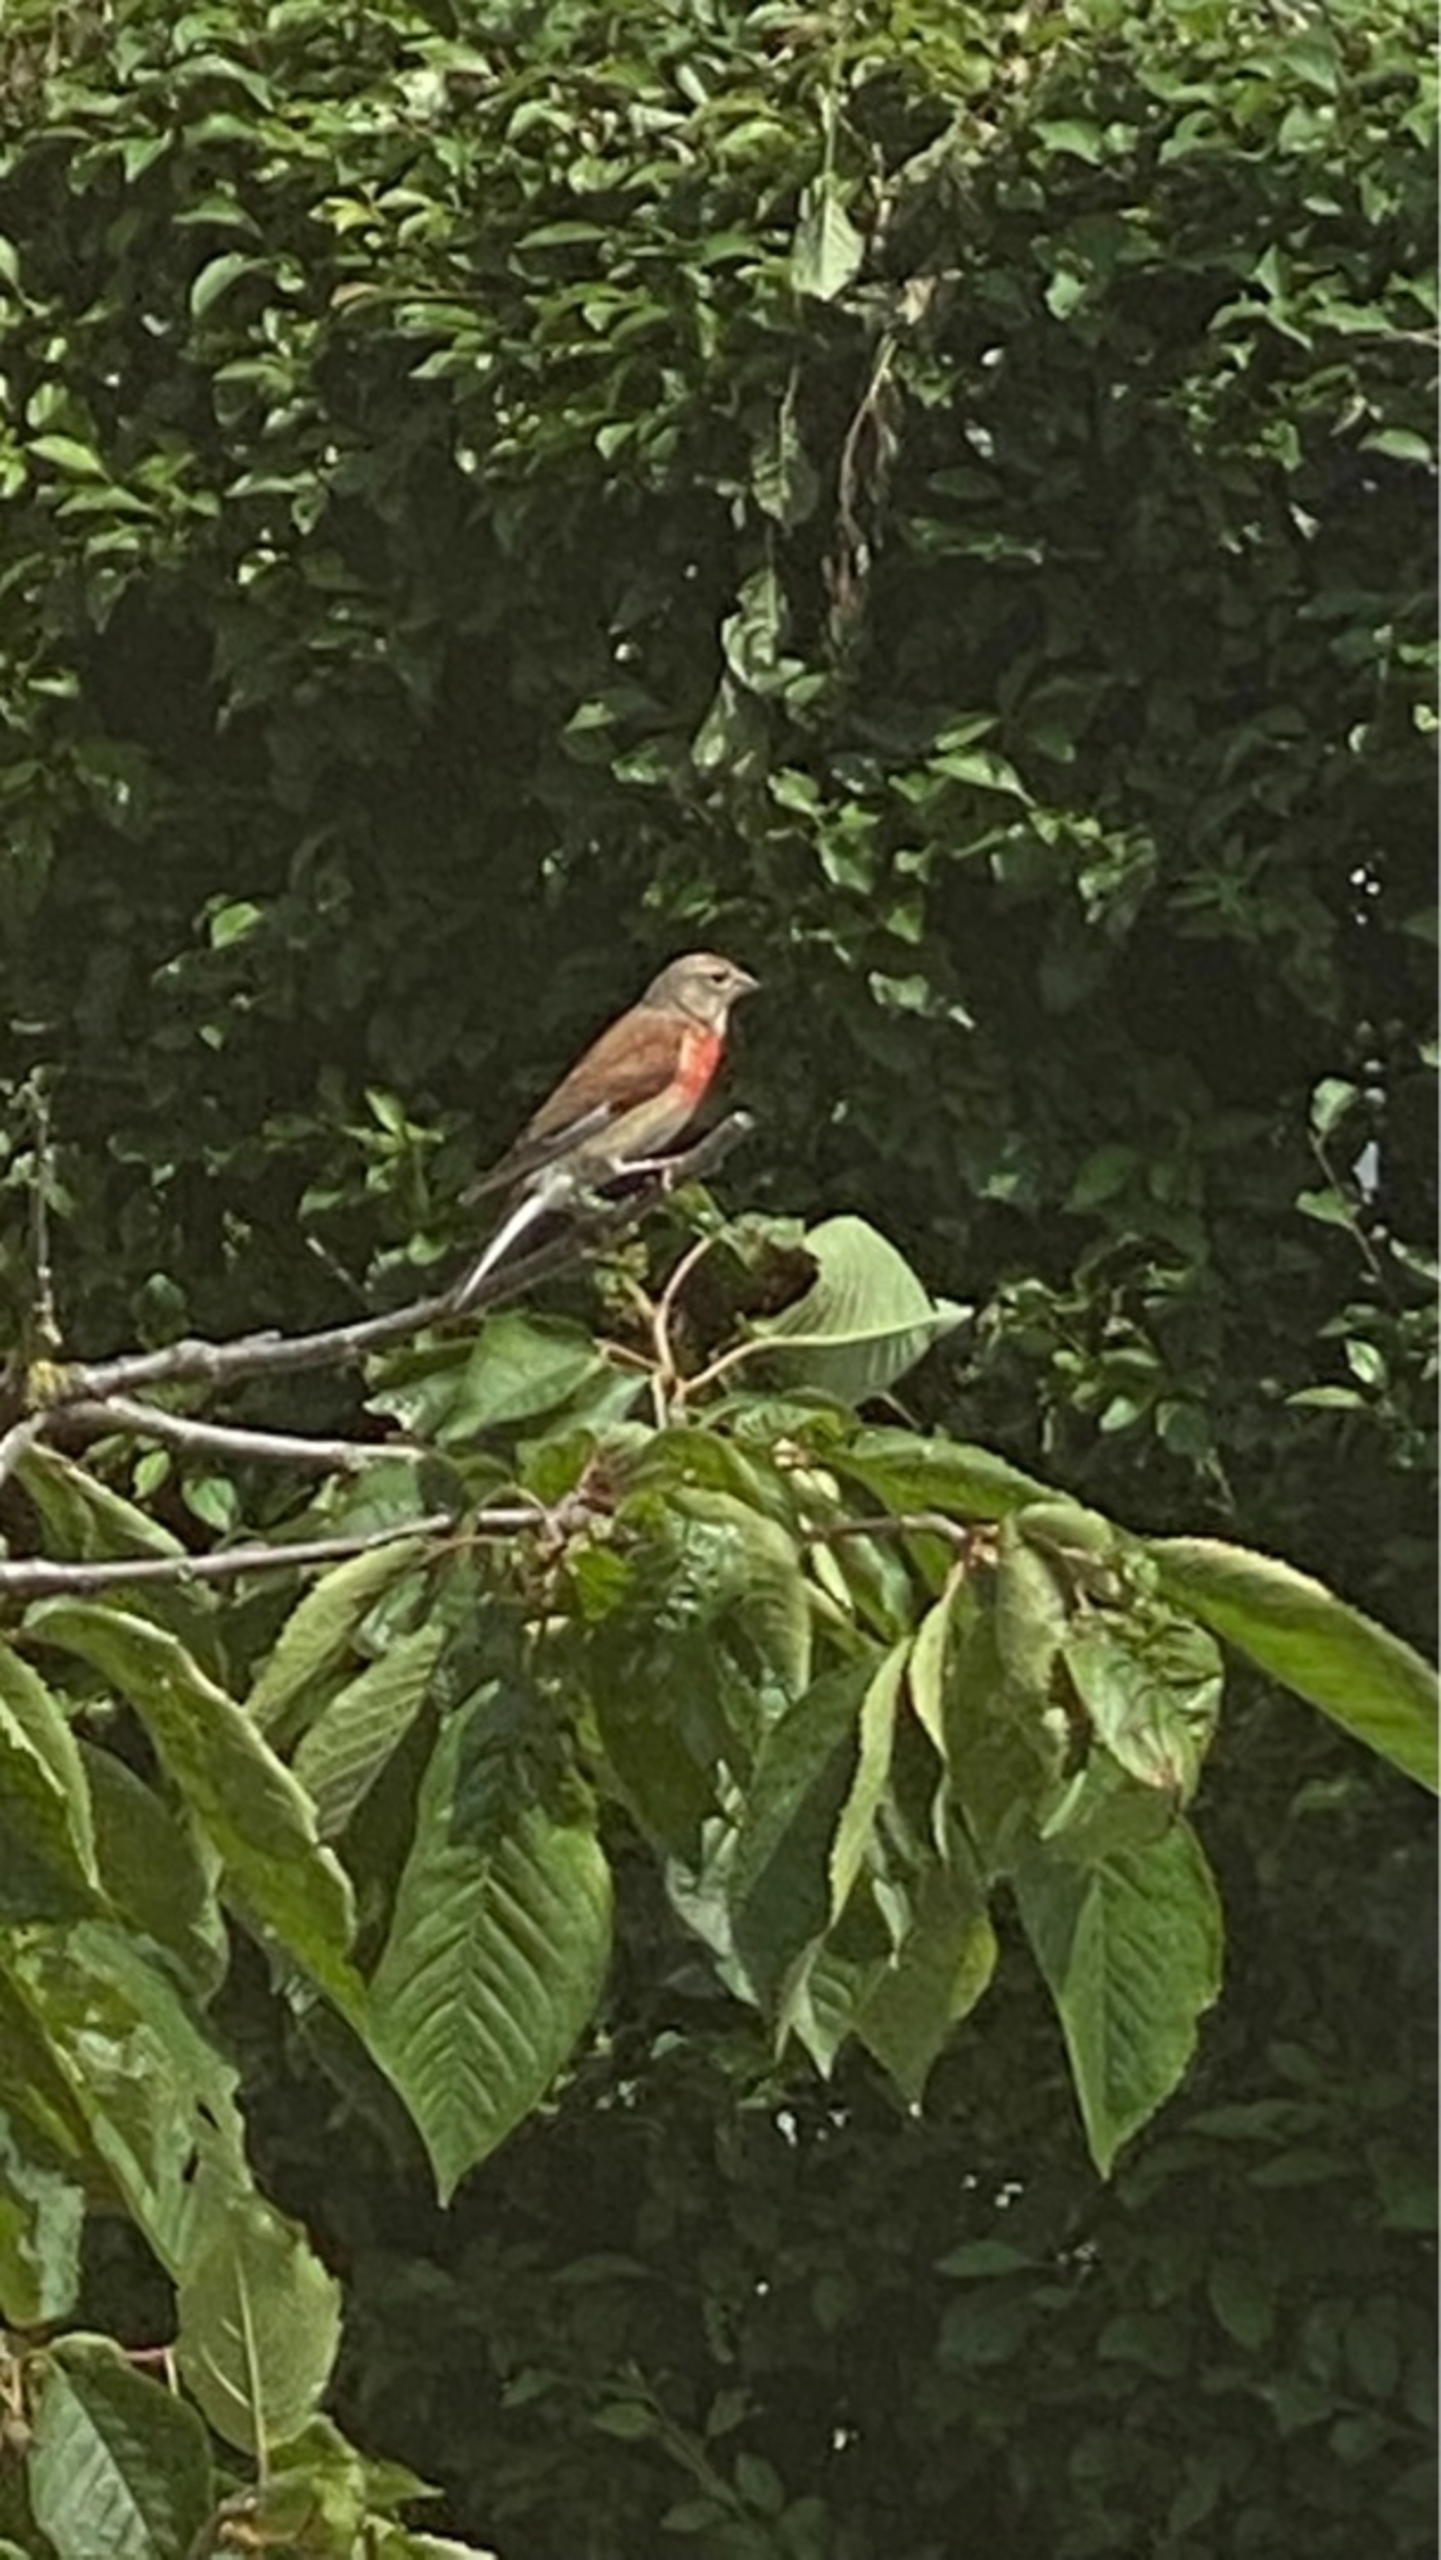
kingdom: Animalia
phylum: Chordata
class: Aves
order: Passeriformes
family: Fringillidae
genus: Linaria
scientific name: Linaria cannabina
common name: Tornirisk
